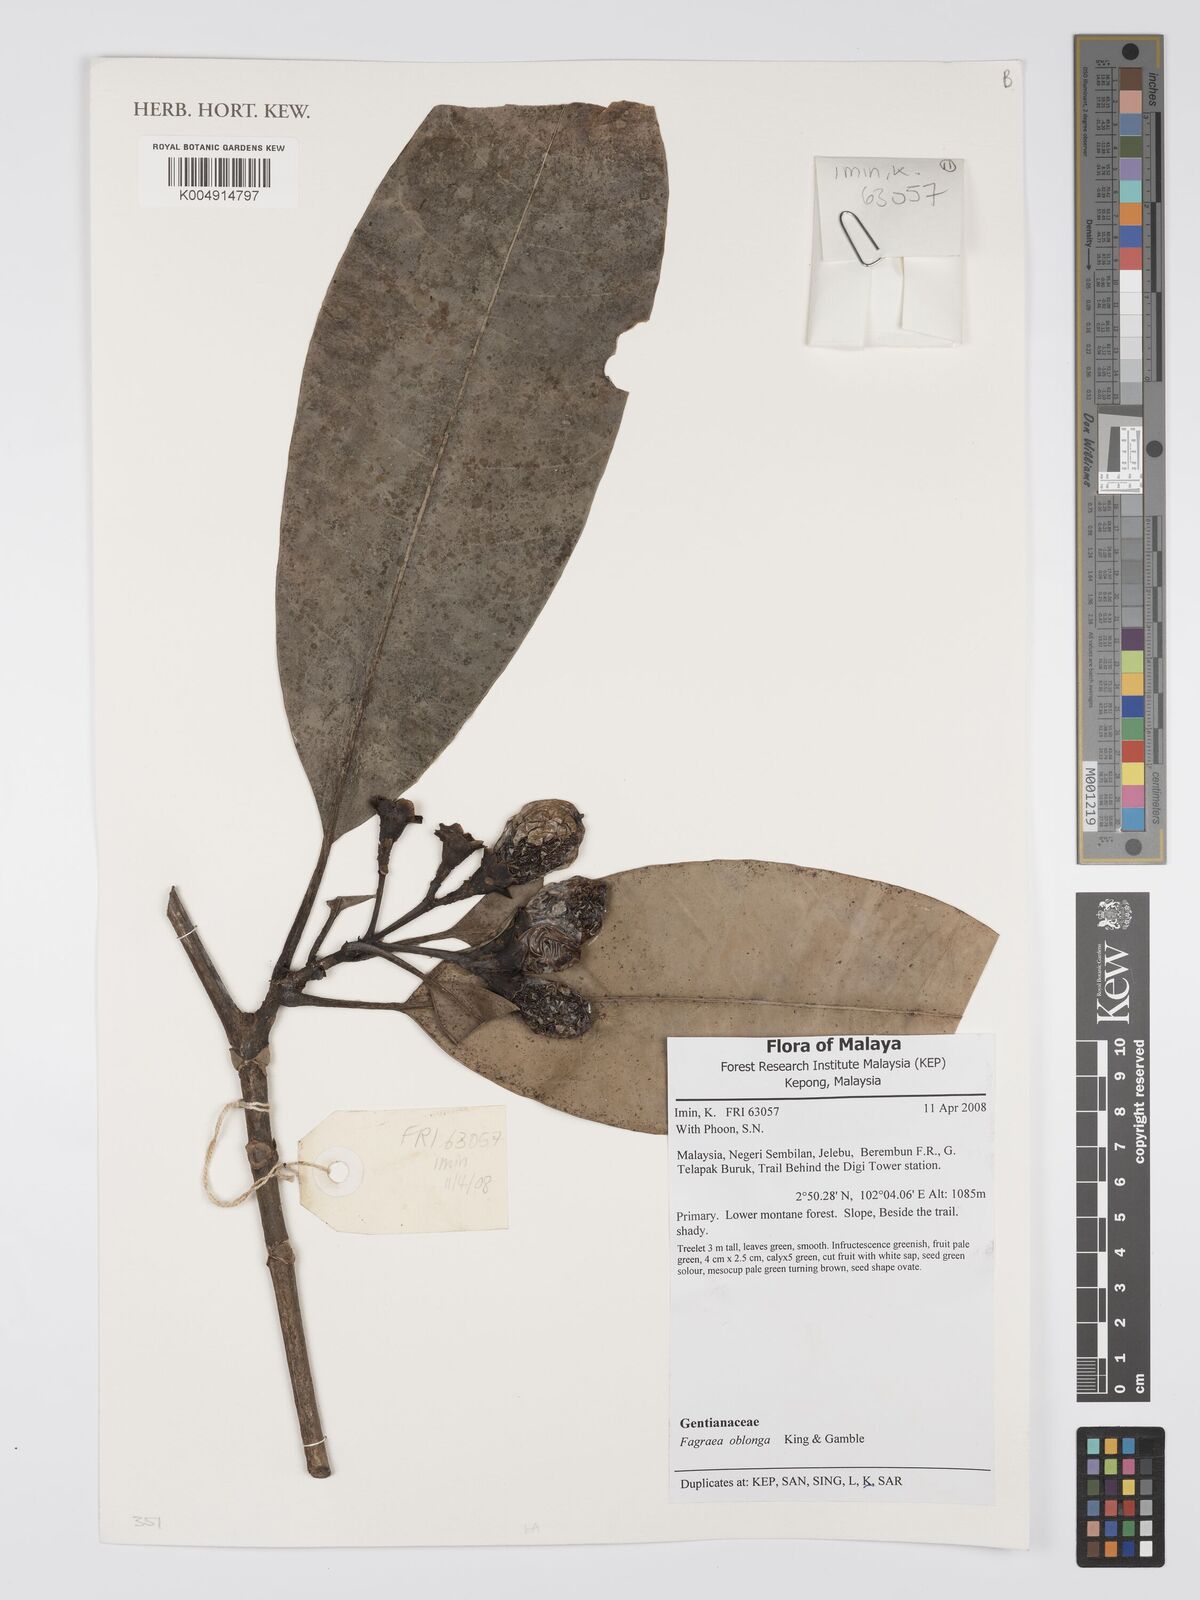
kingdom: Plantae
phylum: Tracheophyta
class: Magnoliopsida
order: Gentianales
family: Gentianaceae
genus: Fagraea
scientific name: Fagraea oblonga
